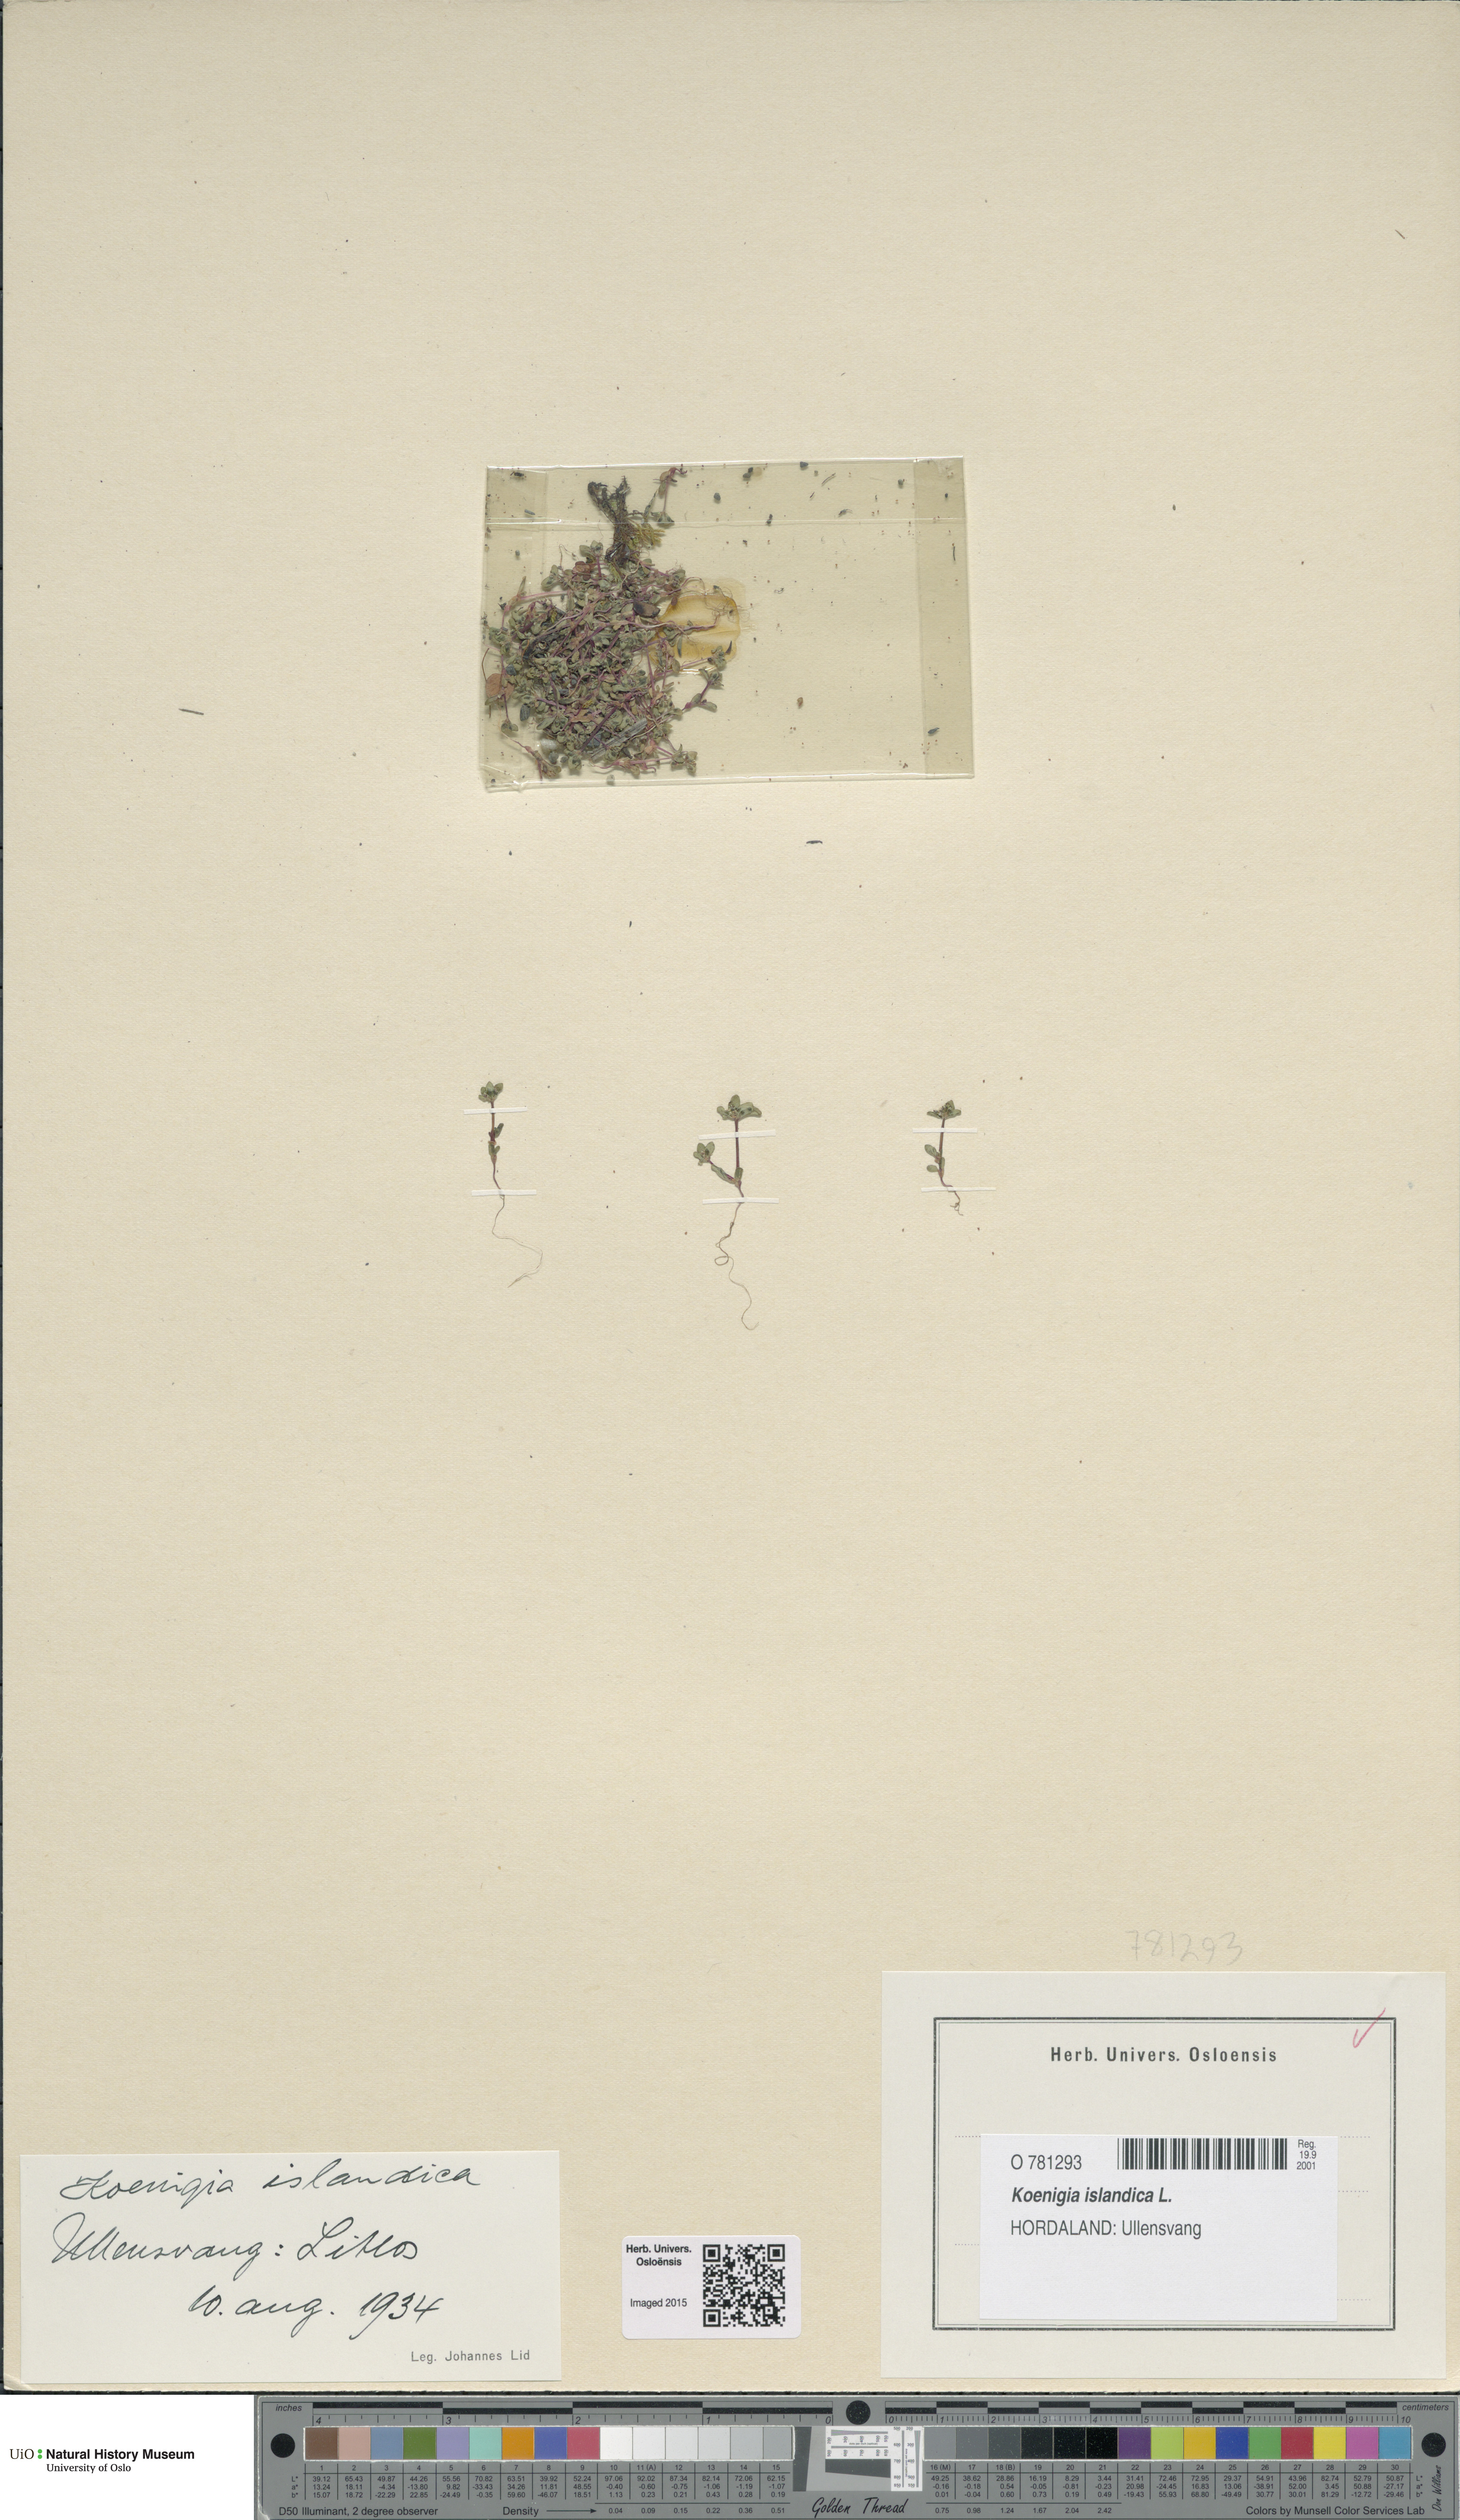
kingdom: Plantae
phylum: Tracheophyta
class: Magnoliopsida
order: Caryophyllales
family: Polygonaceae
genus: Koenigia
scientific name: Koenigia islandica
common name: Iceland-purslane
